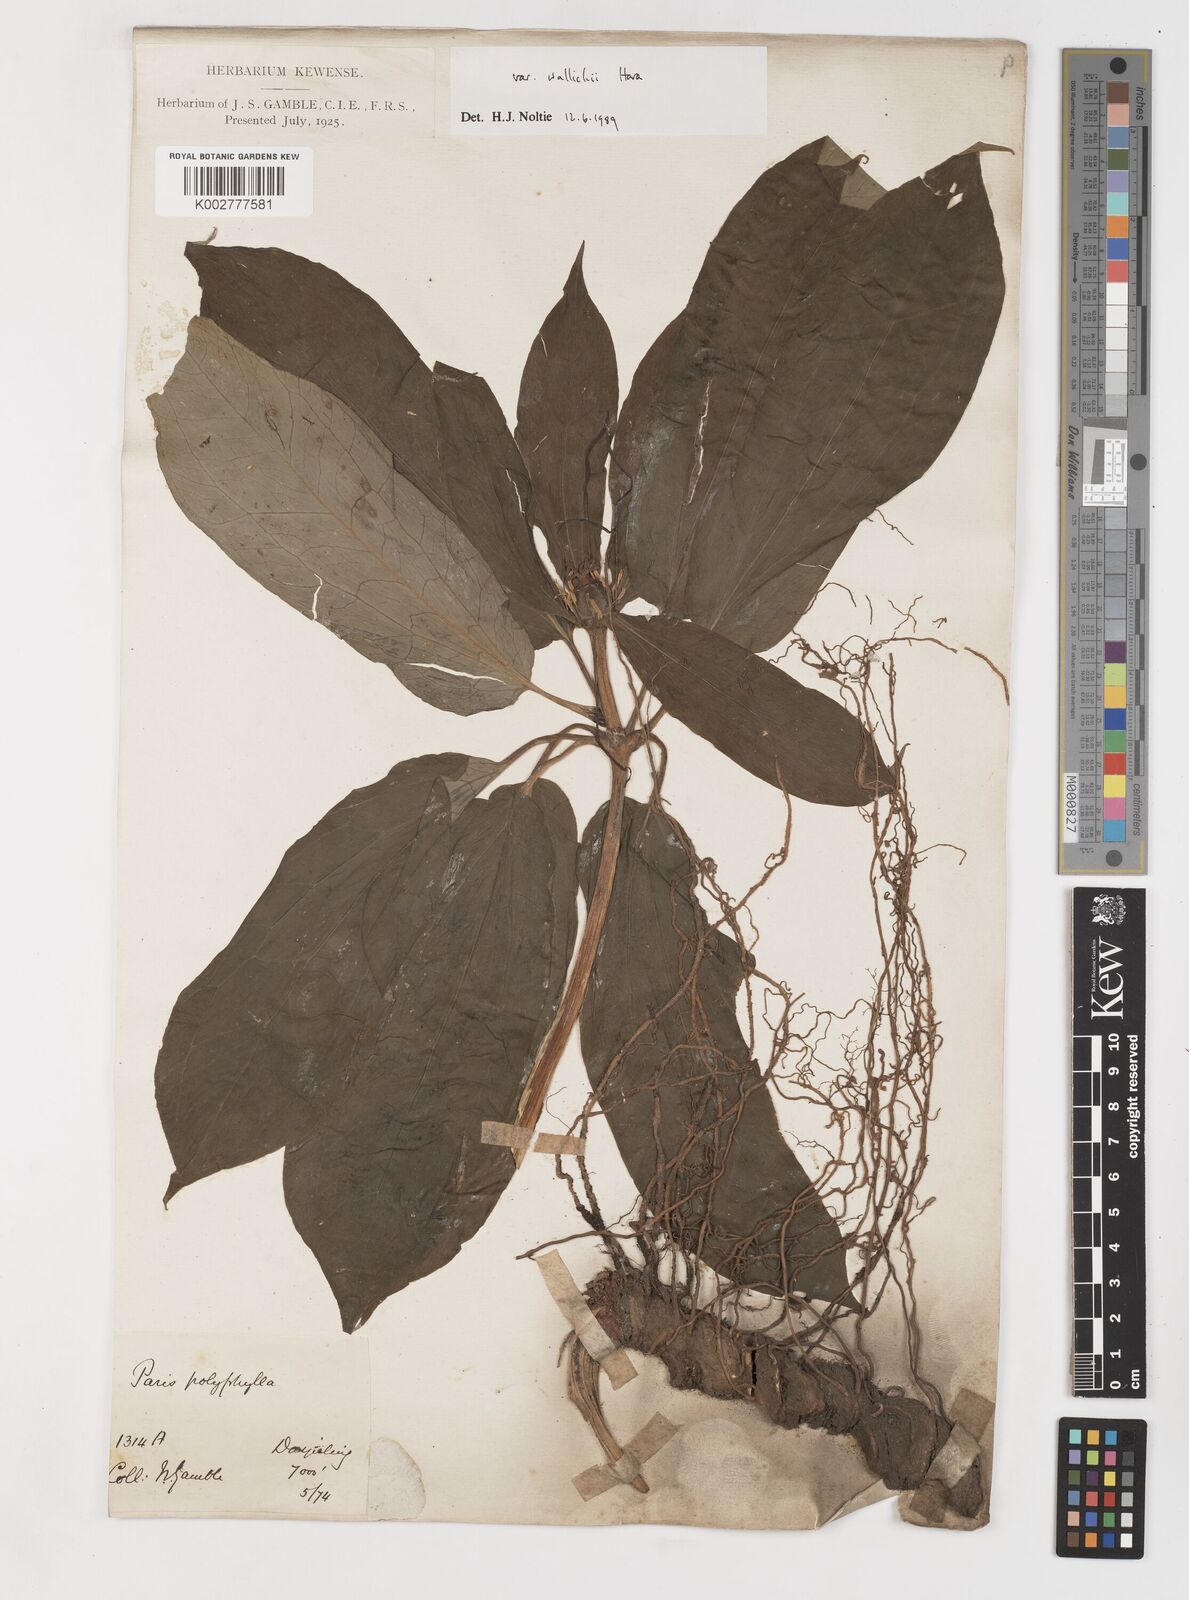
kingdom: Plantae
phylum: Tracheophyta
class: Liliopsida
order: Liliales
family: Melanthiaceae
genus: Paris
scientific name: Paris polyphylla
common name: Love apple
